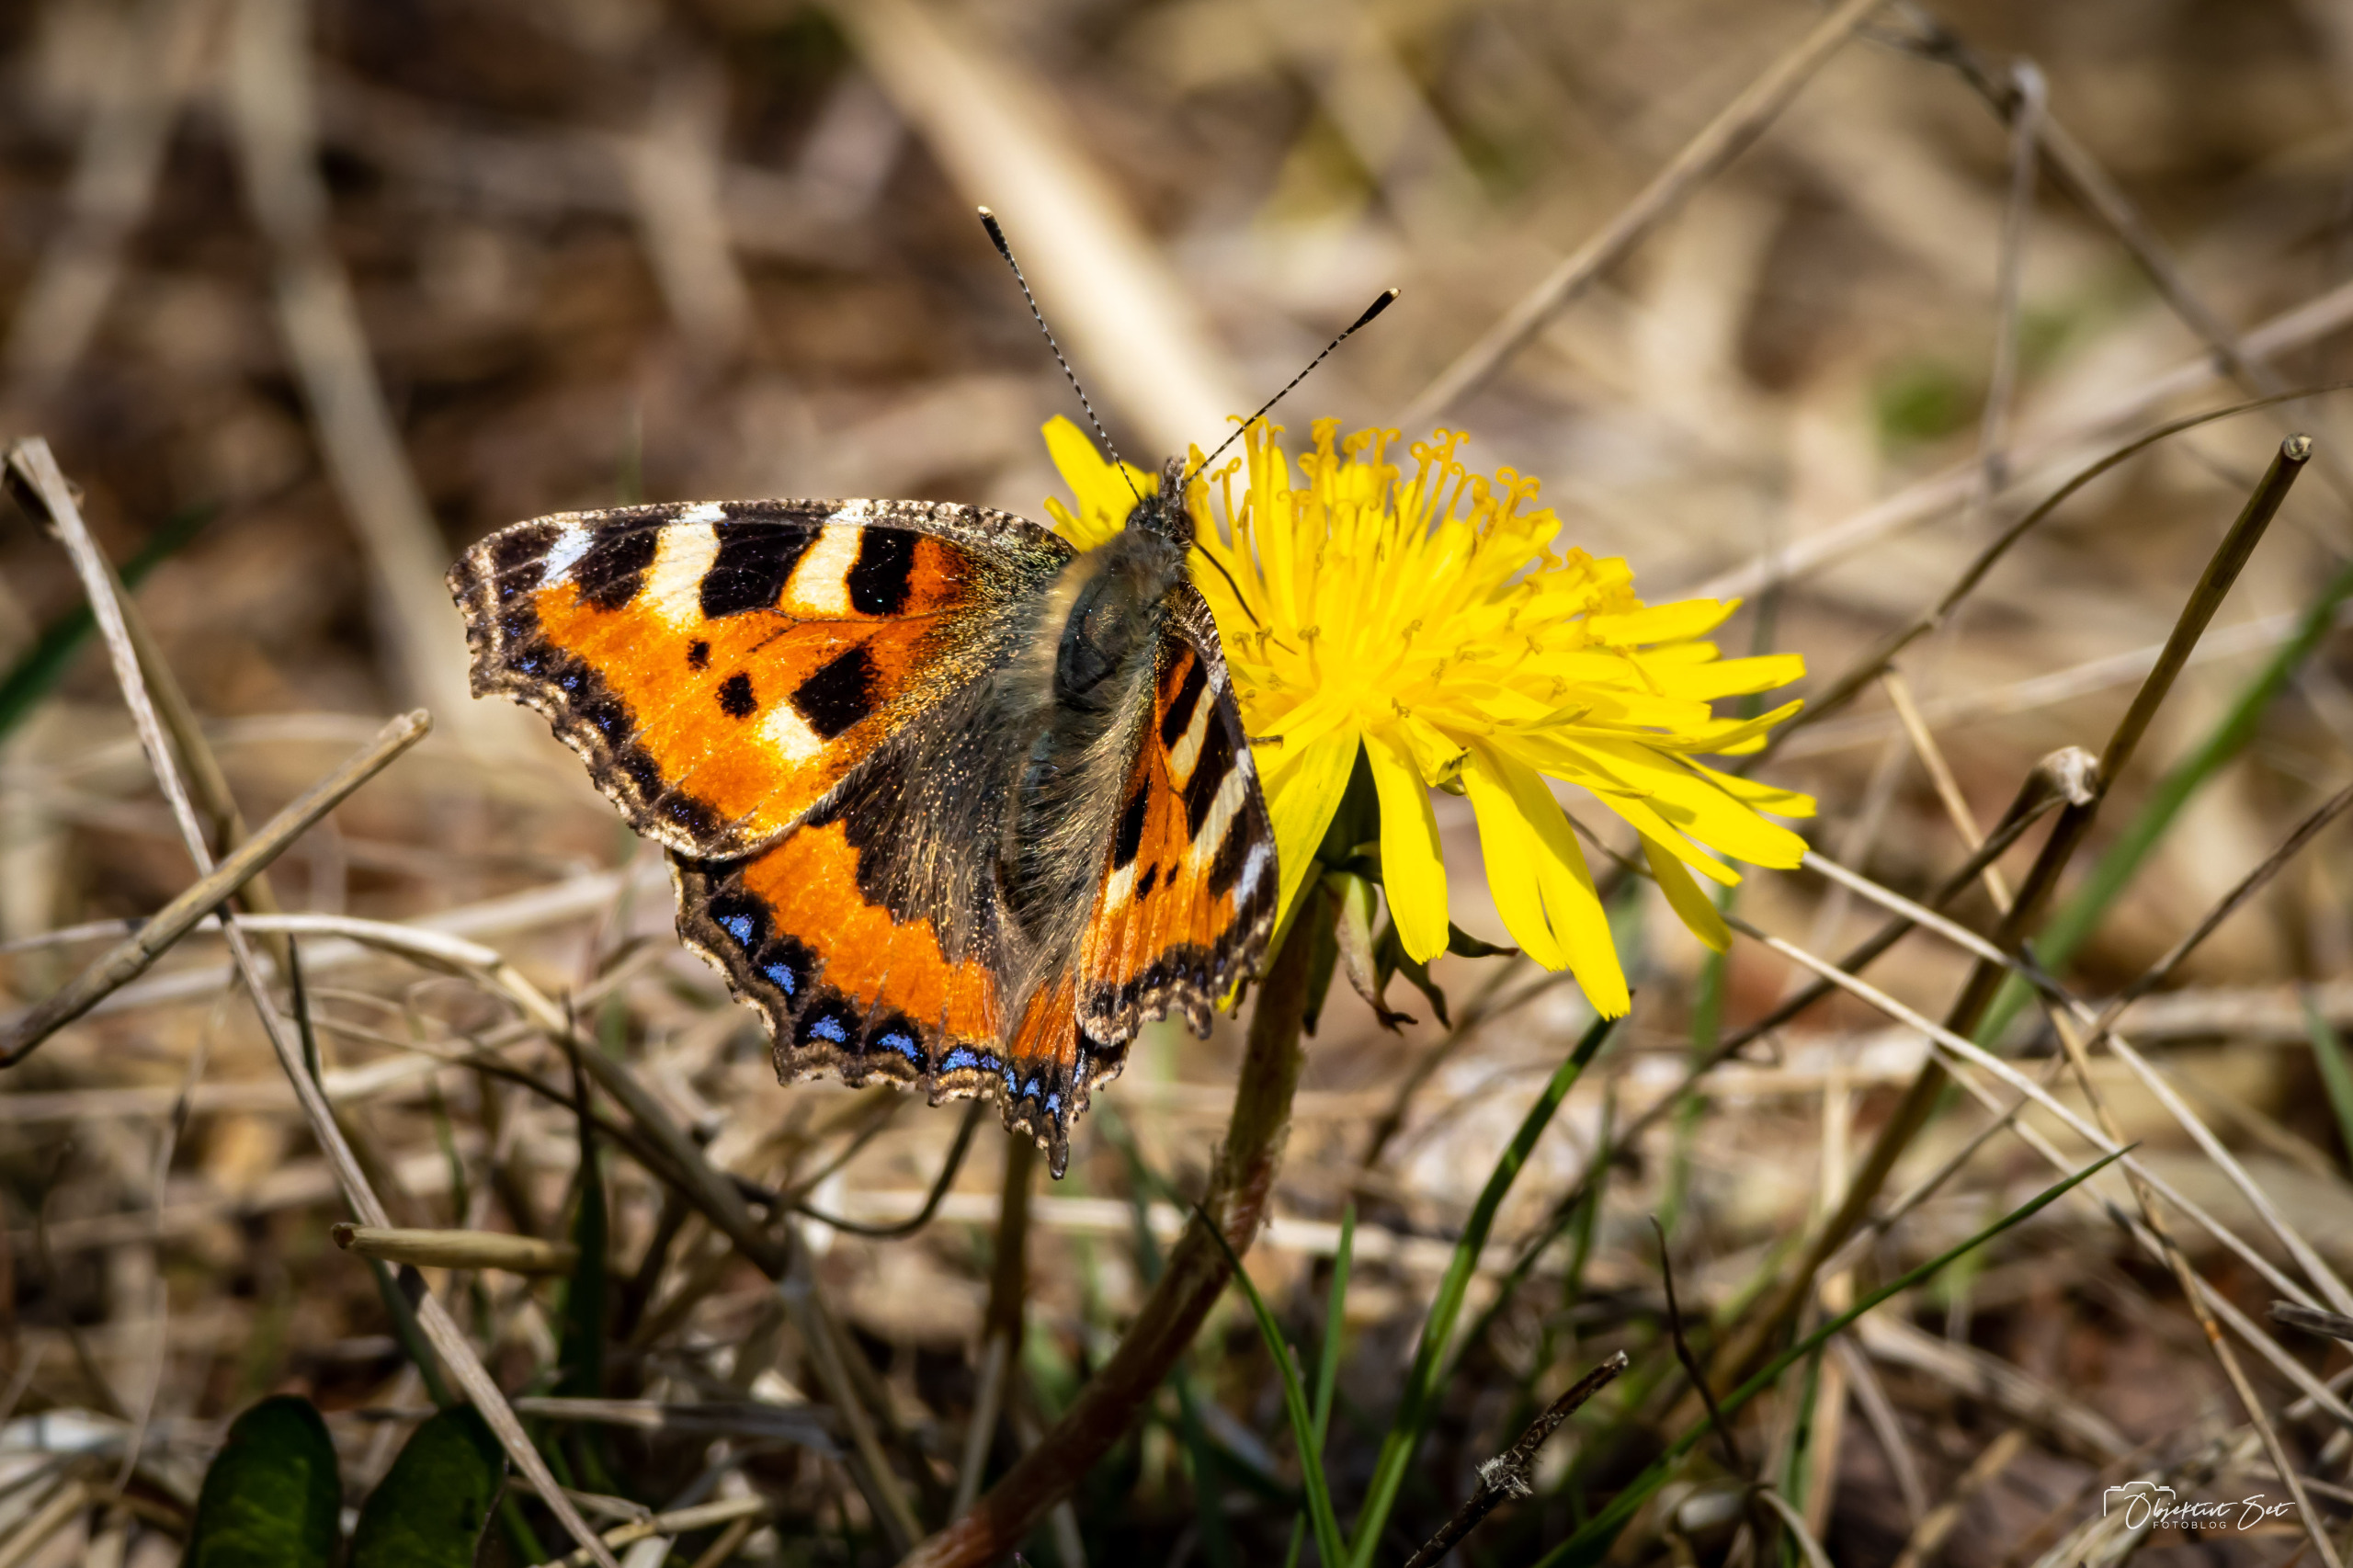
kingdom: Animalia
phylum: Arthropoda
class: Insecta
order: Lepidoptera
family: Nymphalidae
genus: Aglais
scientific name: Aglais urticae
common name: Nældens takvinge
